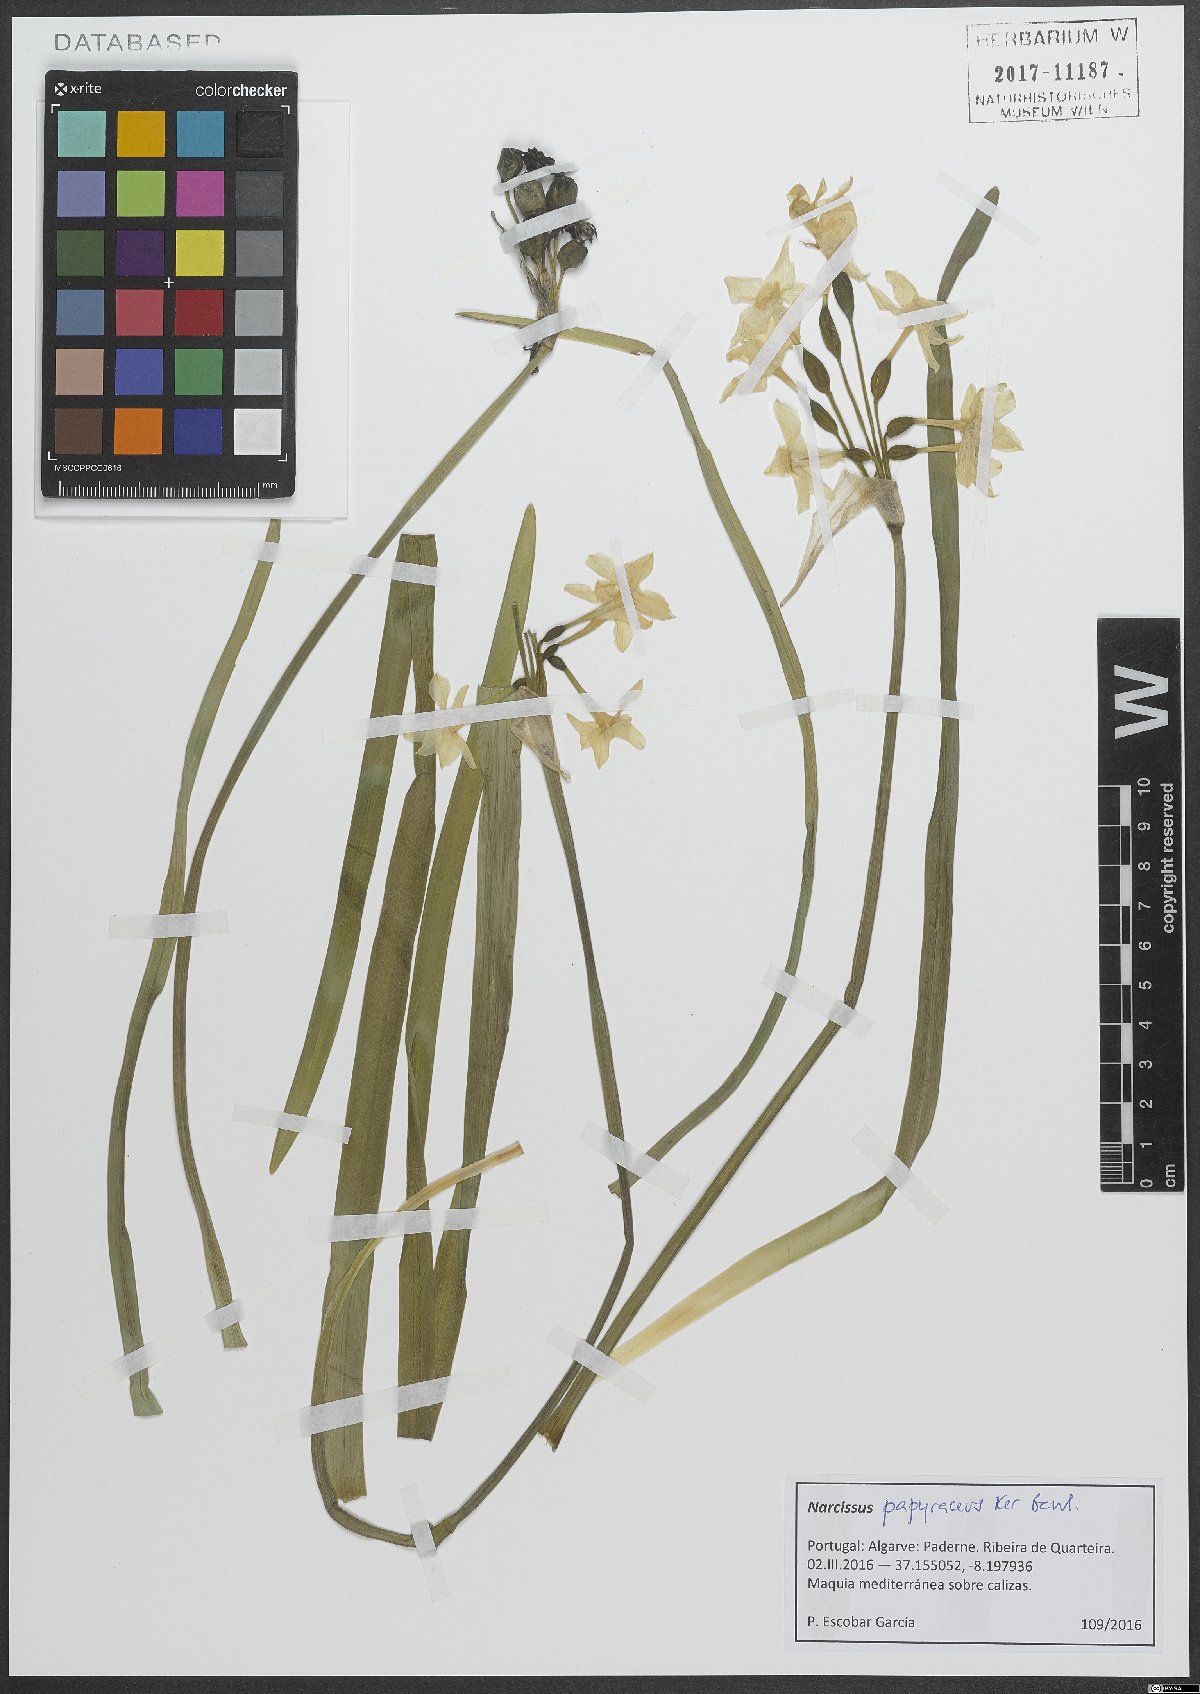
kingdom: Plantae
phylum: Tracheophyta
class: Liliopsida
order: Asparagales
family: Amaryllidaceae
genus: Narcissus
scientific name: Narcissus papyraceus
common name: Paper-white daffodil
